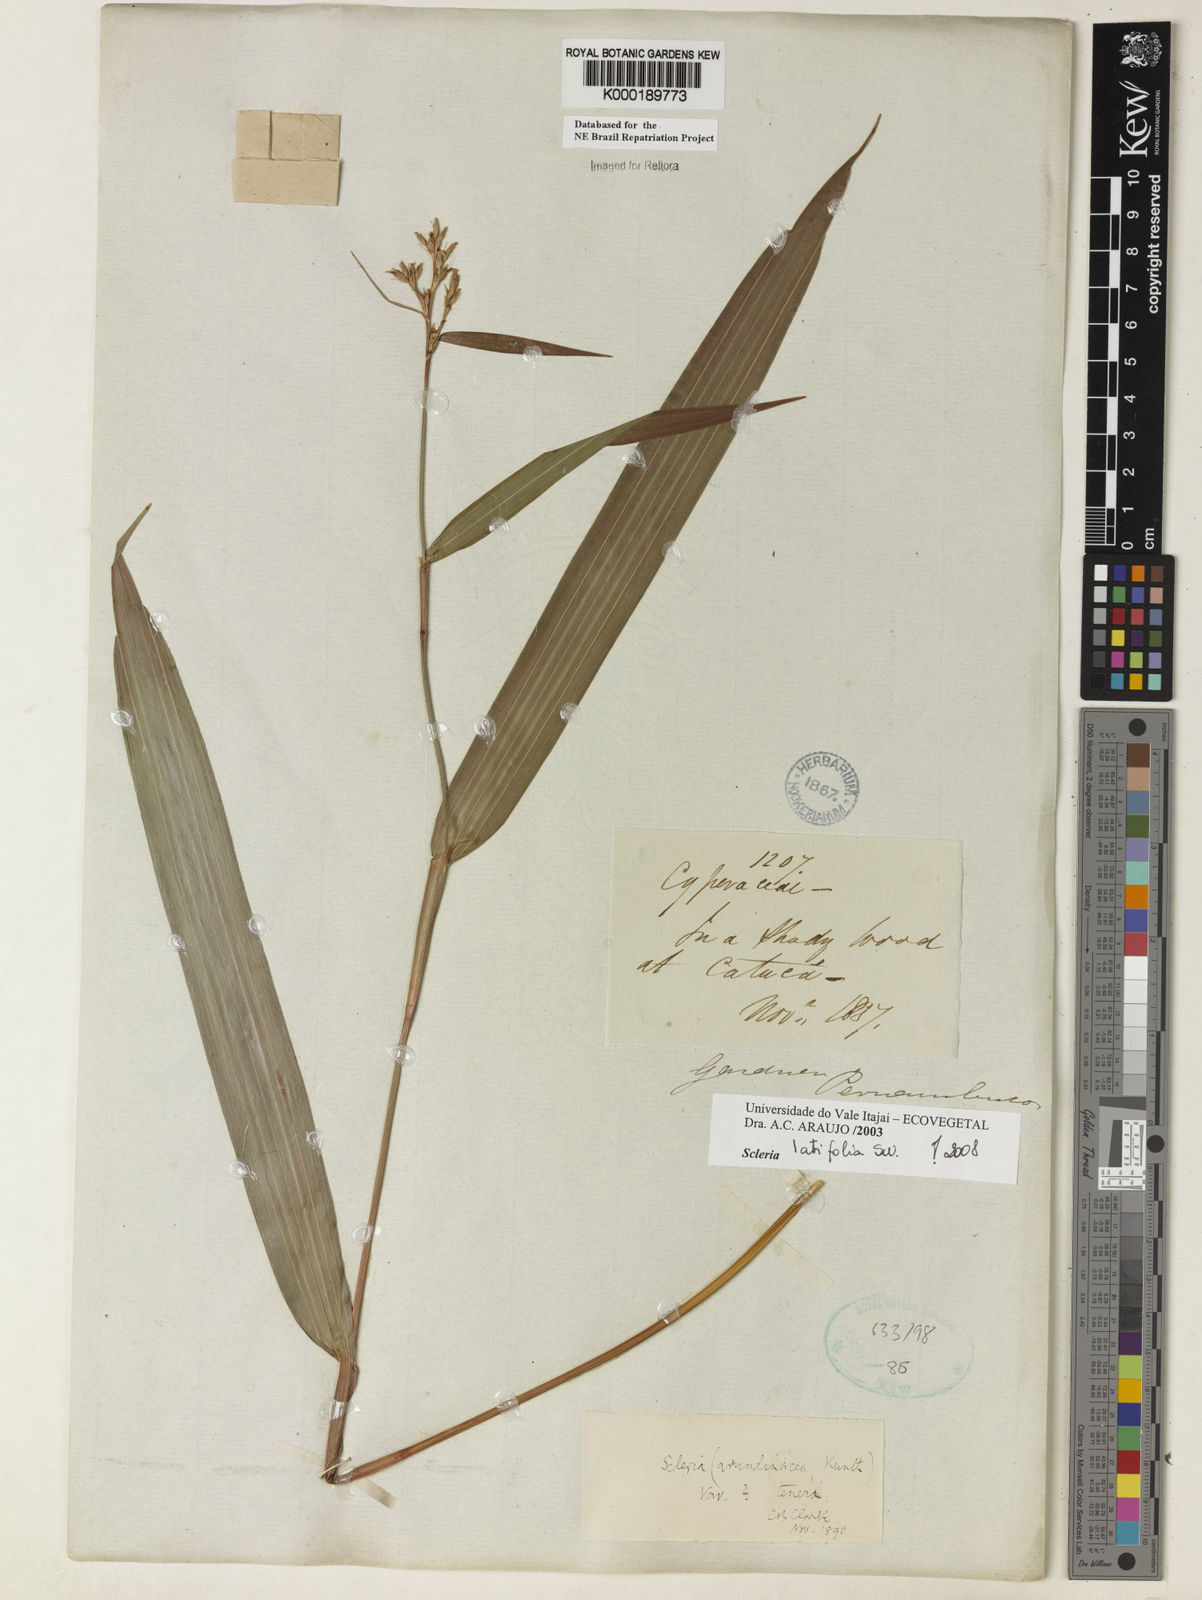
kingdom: Plantae
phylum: Tracheophyta
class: Liliopsida
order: Poales
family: Cyperaceae
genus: Scleria
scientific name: Scleria latifolia
